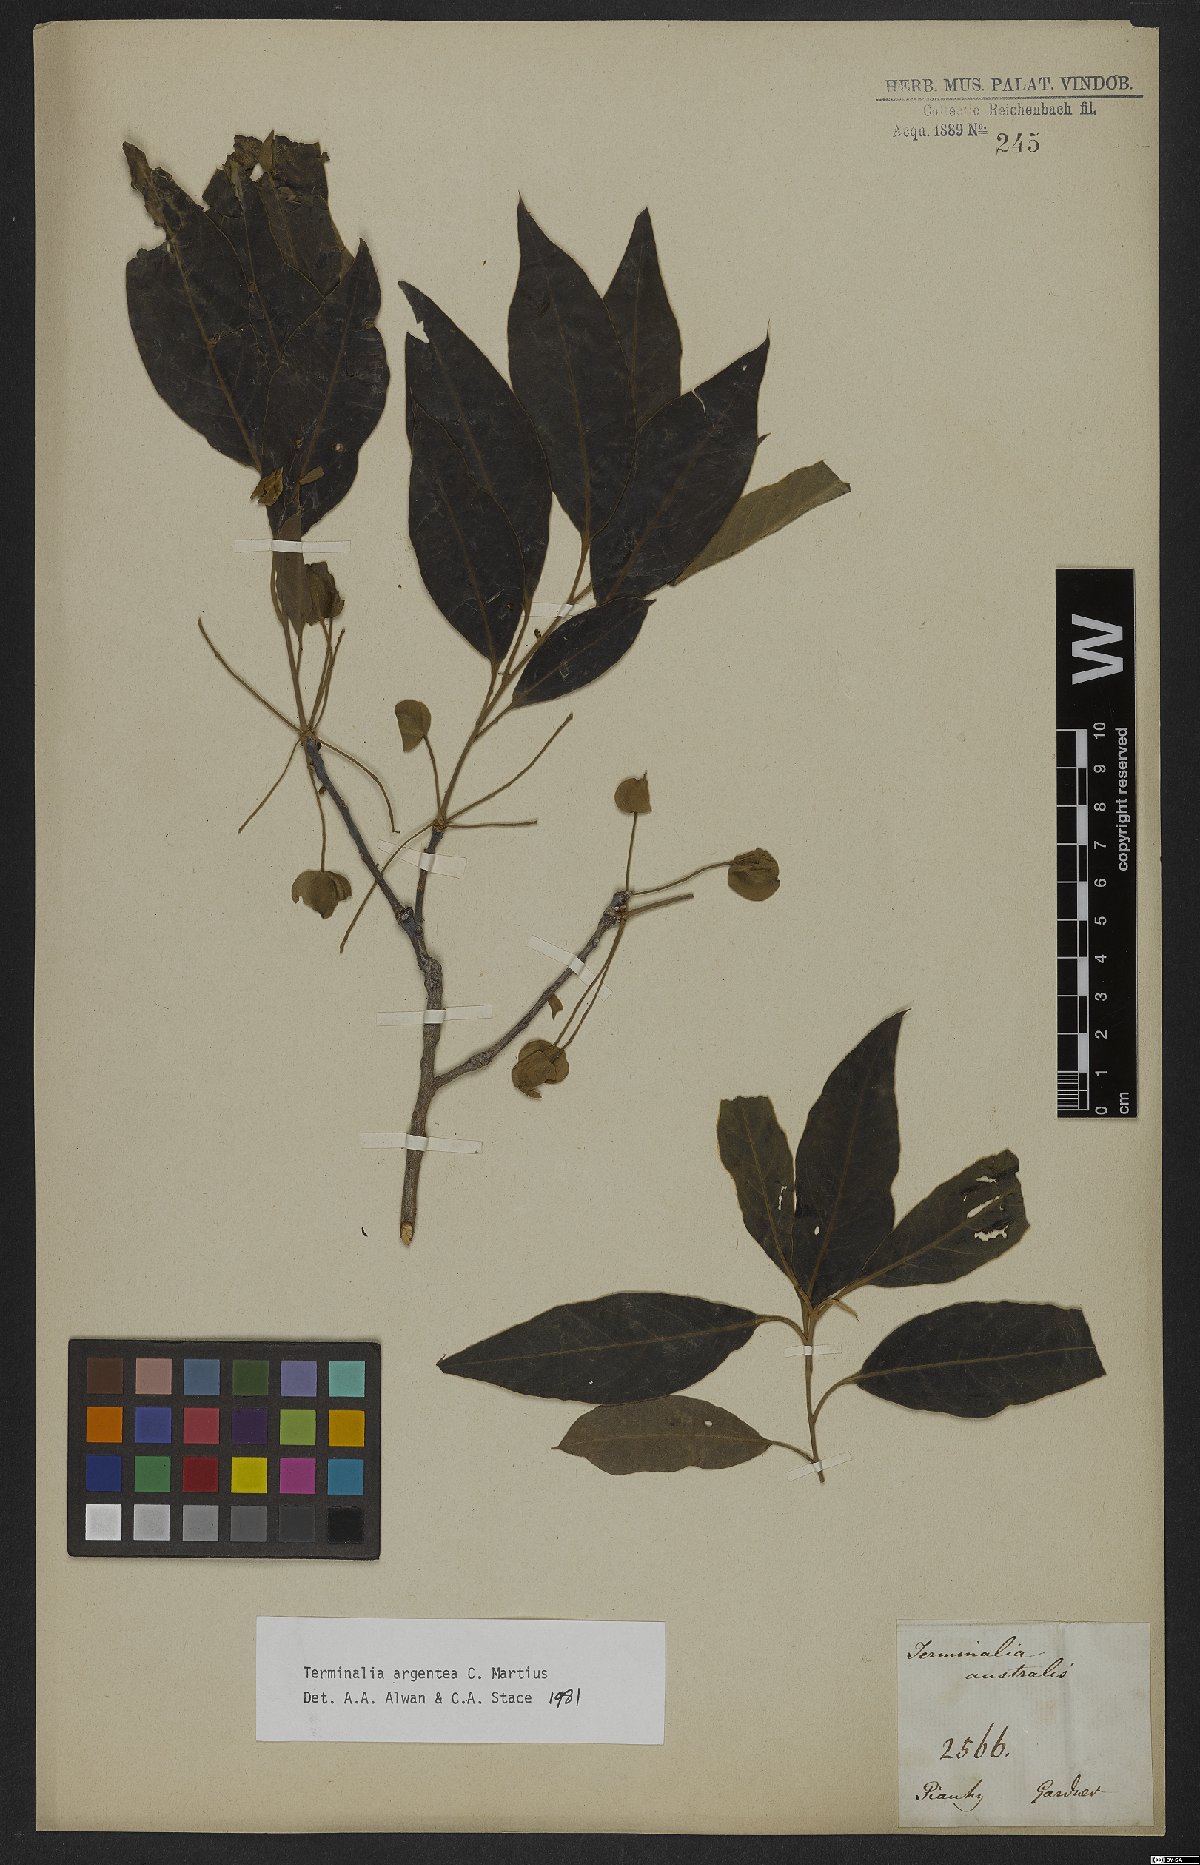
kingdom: Plantae
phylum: Tracheophyta
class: Magnoliopsida
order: Myrtales
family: Combretaceae
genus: Terminalia
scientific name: Terminalia argentea
